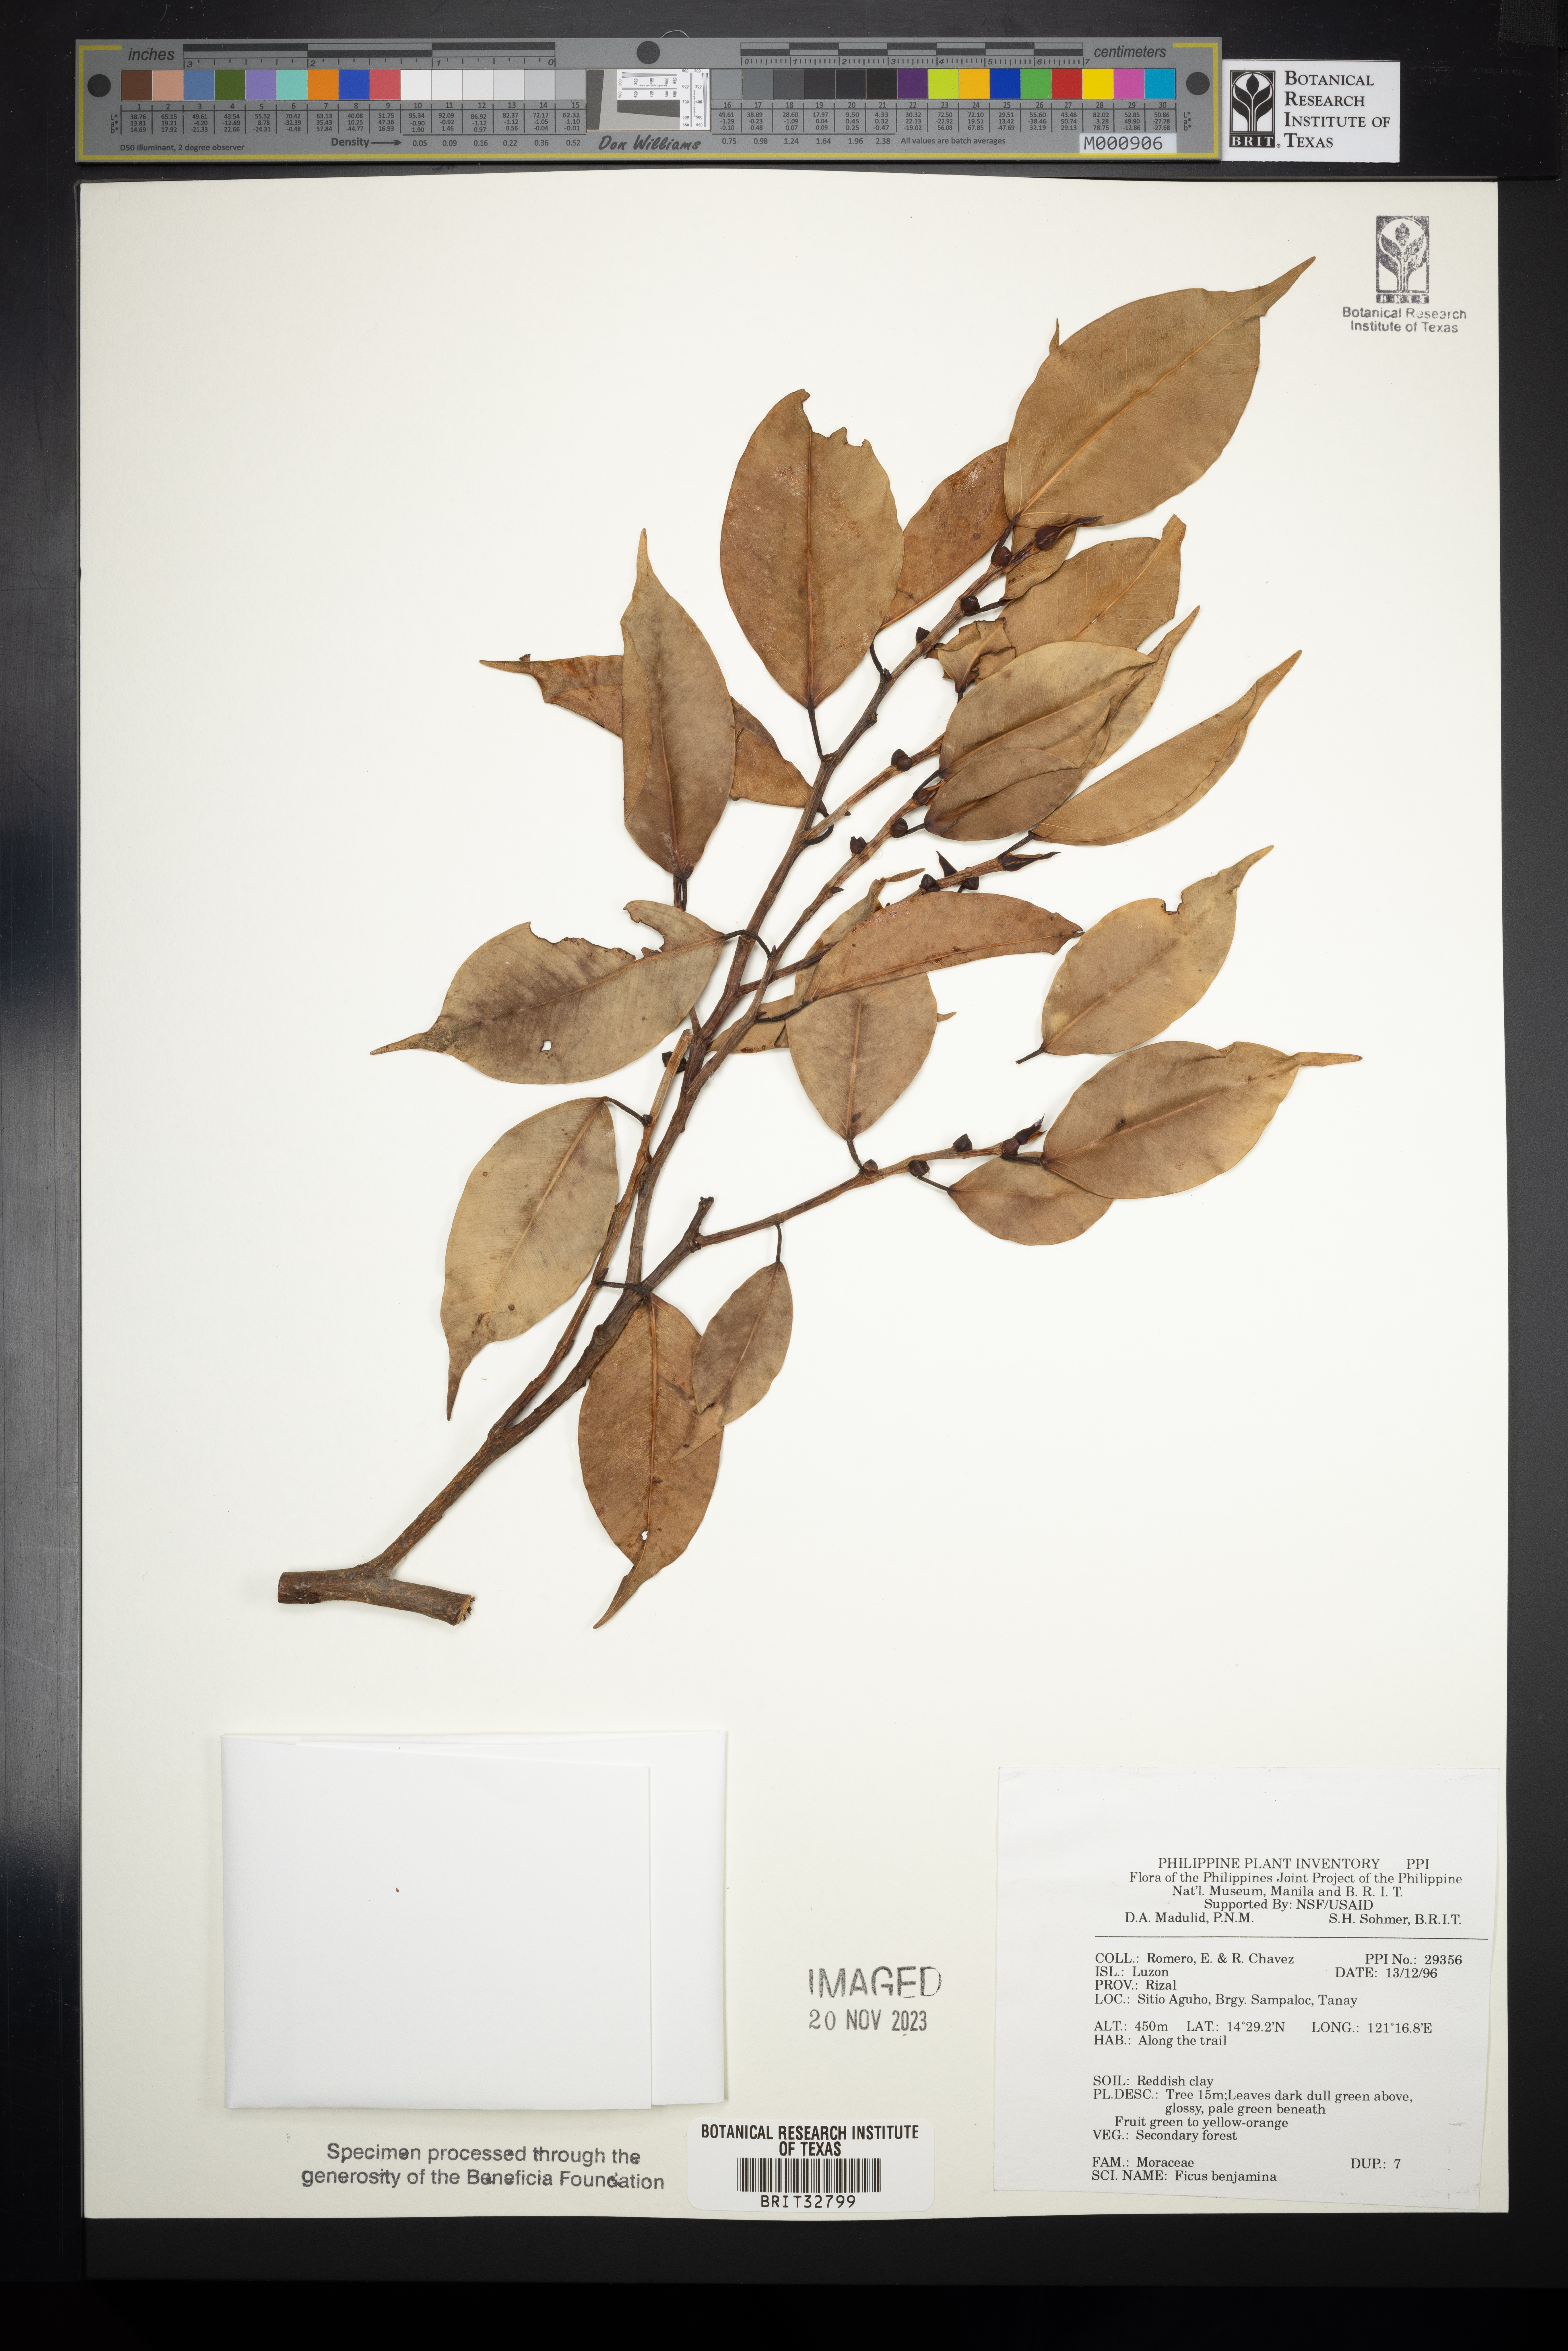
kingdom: Plantae
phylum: Tracheophyta
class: Magnoliopsida
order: Rosales
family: Moraceae
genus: Ficus
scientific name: Ficus benjamina
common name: Weeping fig
